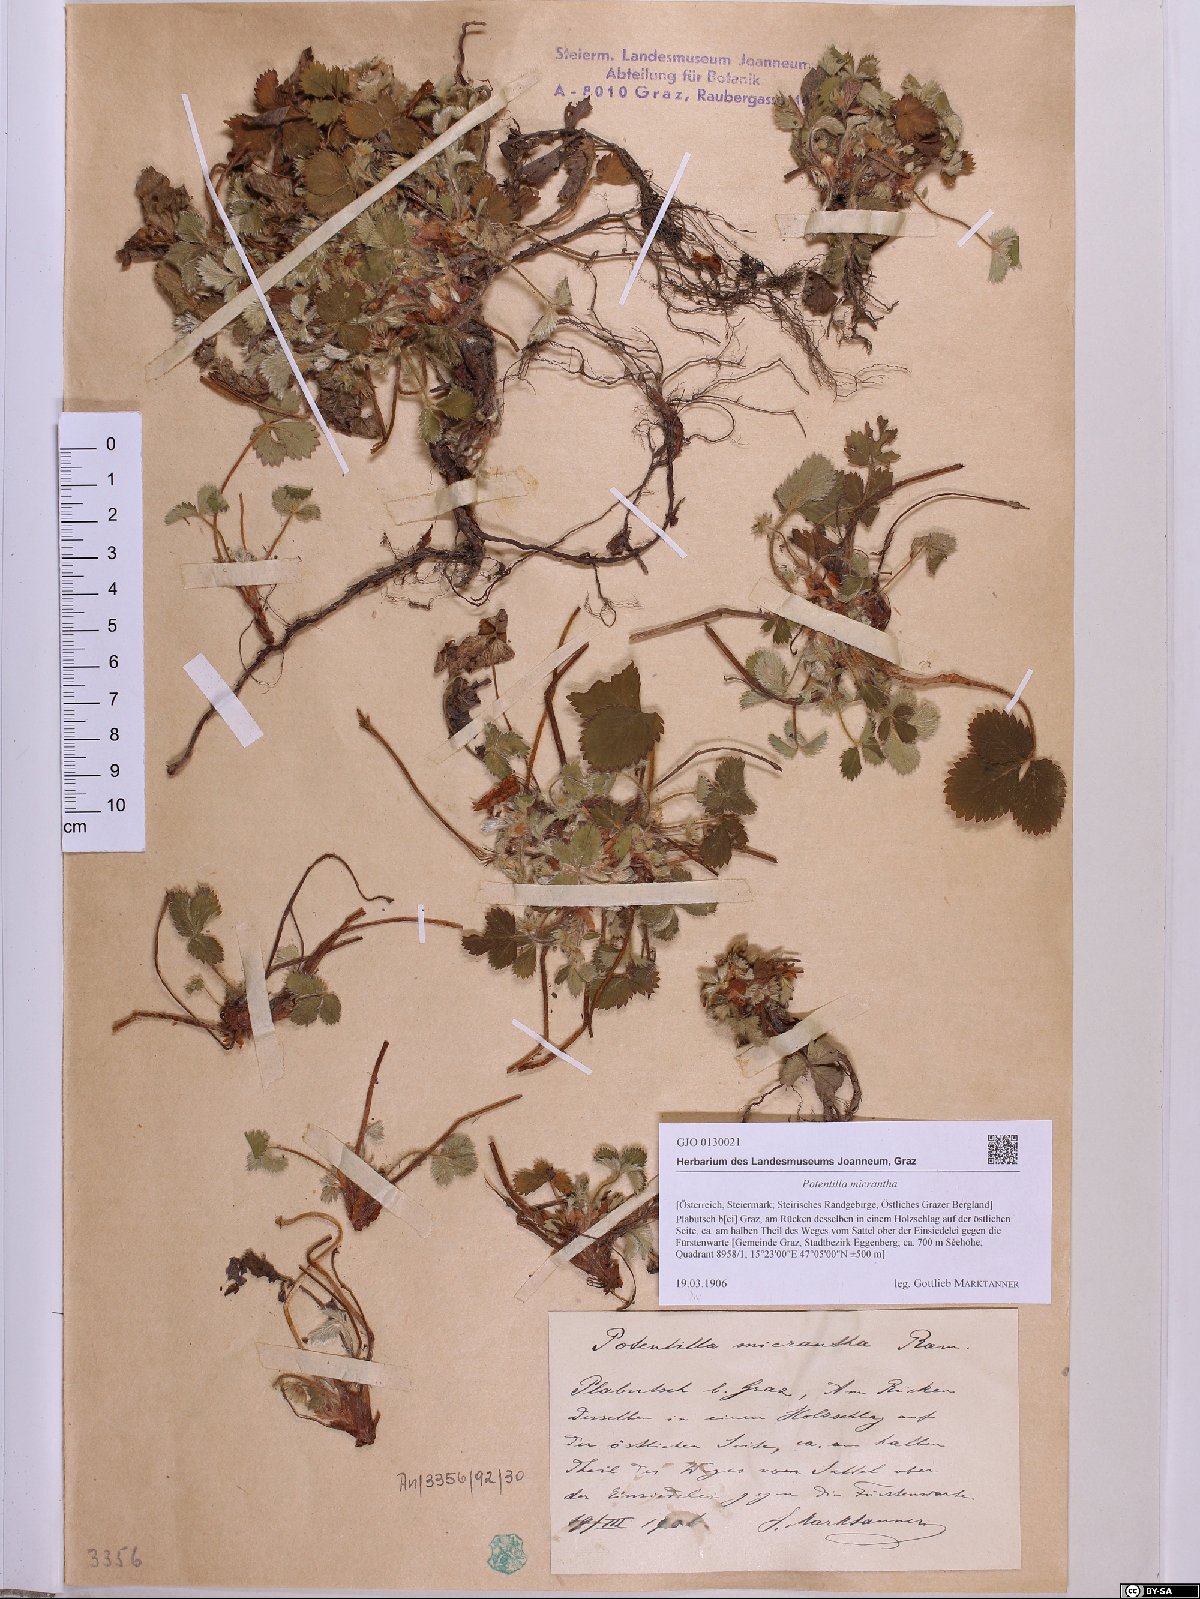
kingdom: Plantae
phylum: Tracheophyta
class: Magnoliopsida
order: Rosales
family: Rosaceae
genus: Potentilla
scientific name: Potentilla micrantha
